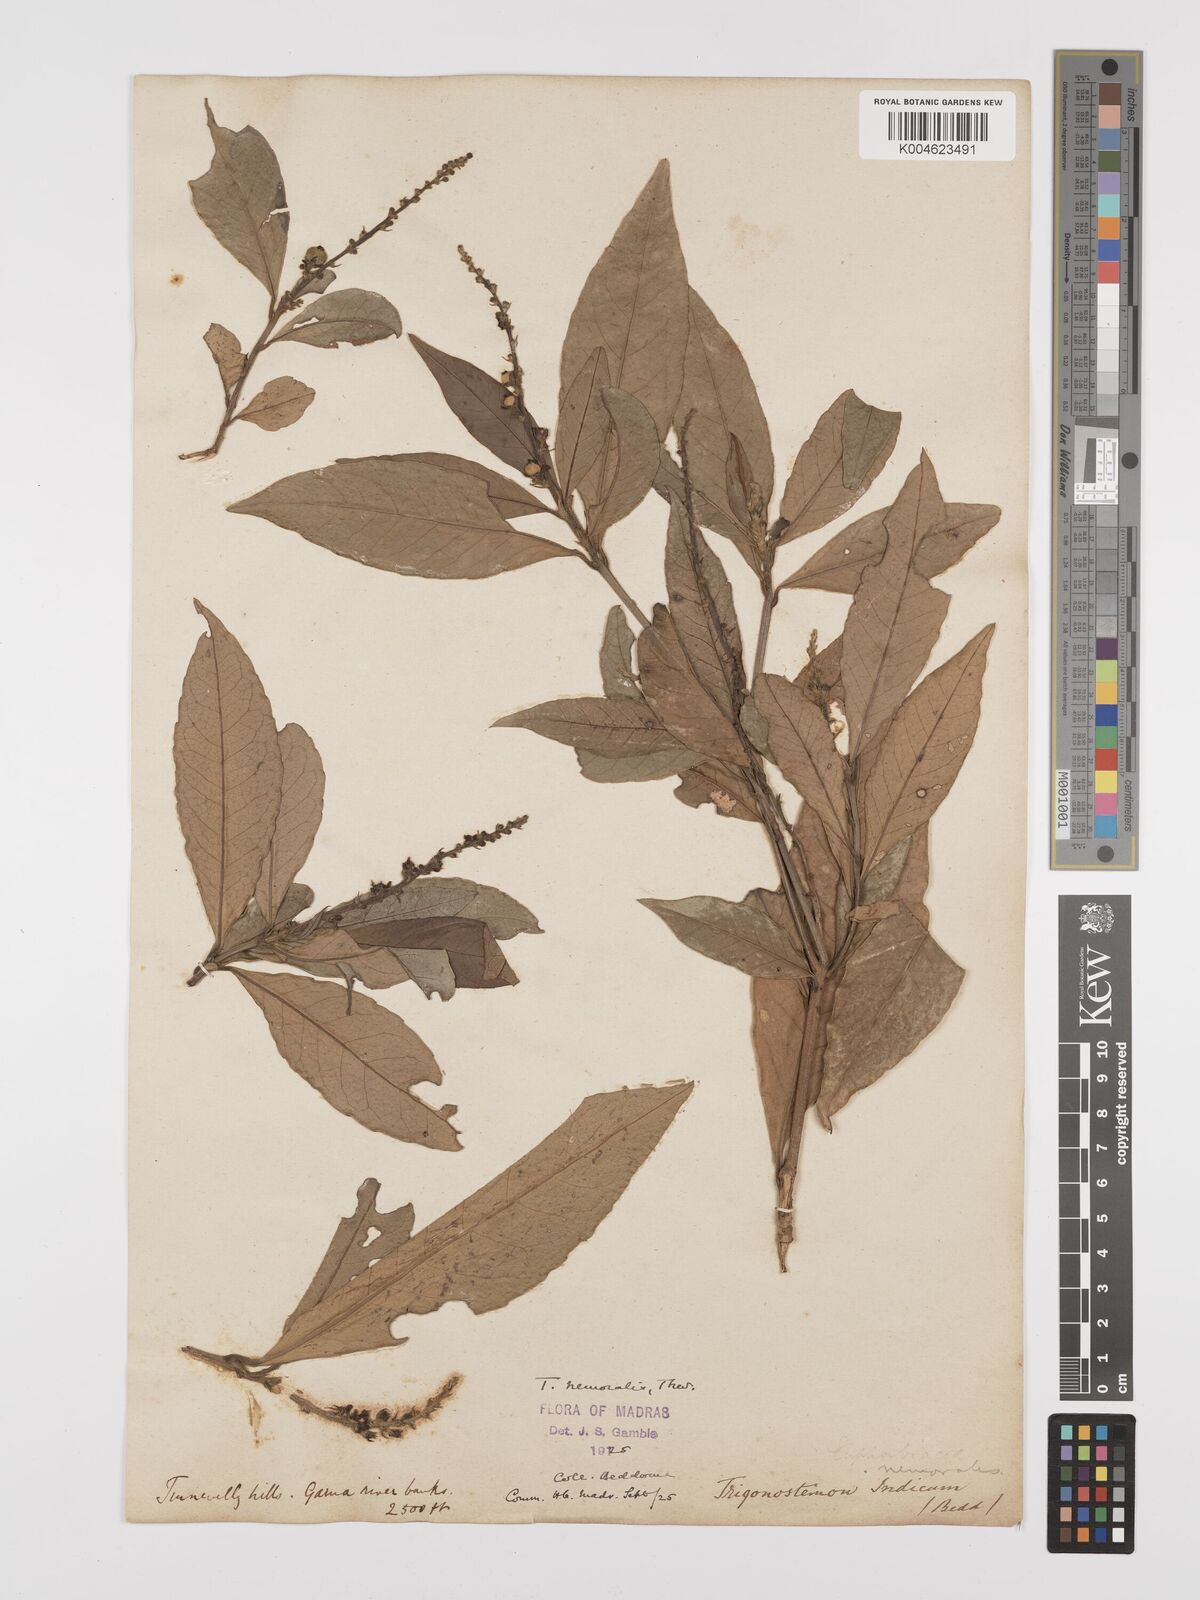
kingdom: Plantae
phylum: Tracheophyta
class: Magnoliopsida
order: Malpighiales
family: Euphorbiaceae
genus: Trigonostemon
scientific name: Trigonostemon nemoralis
